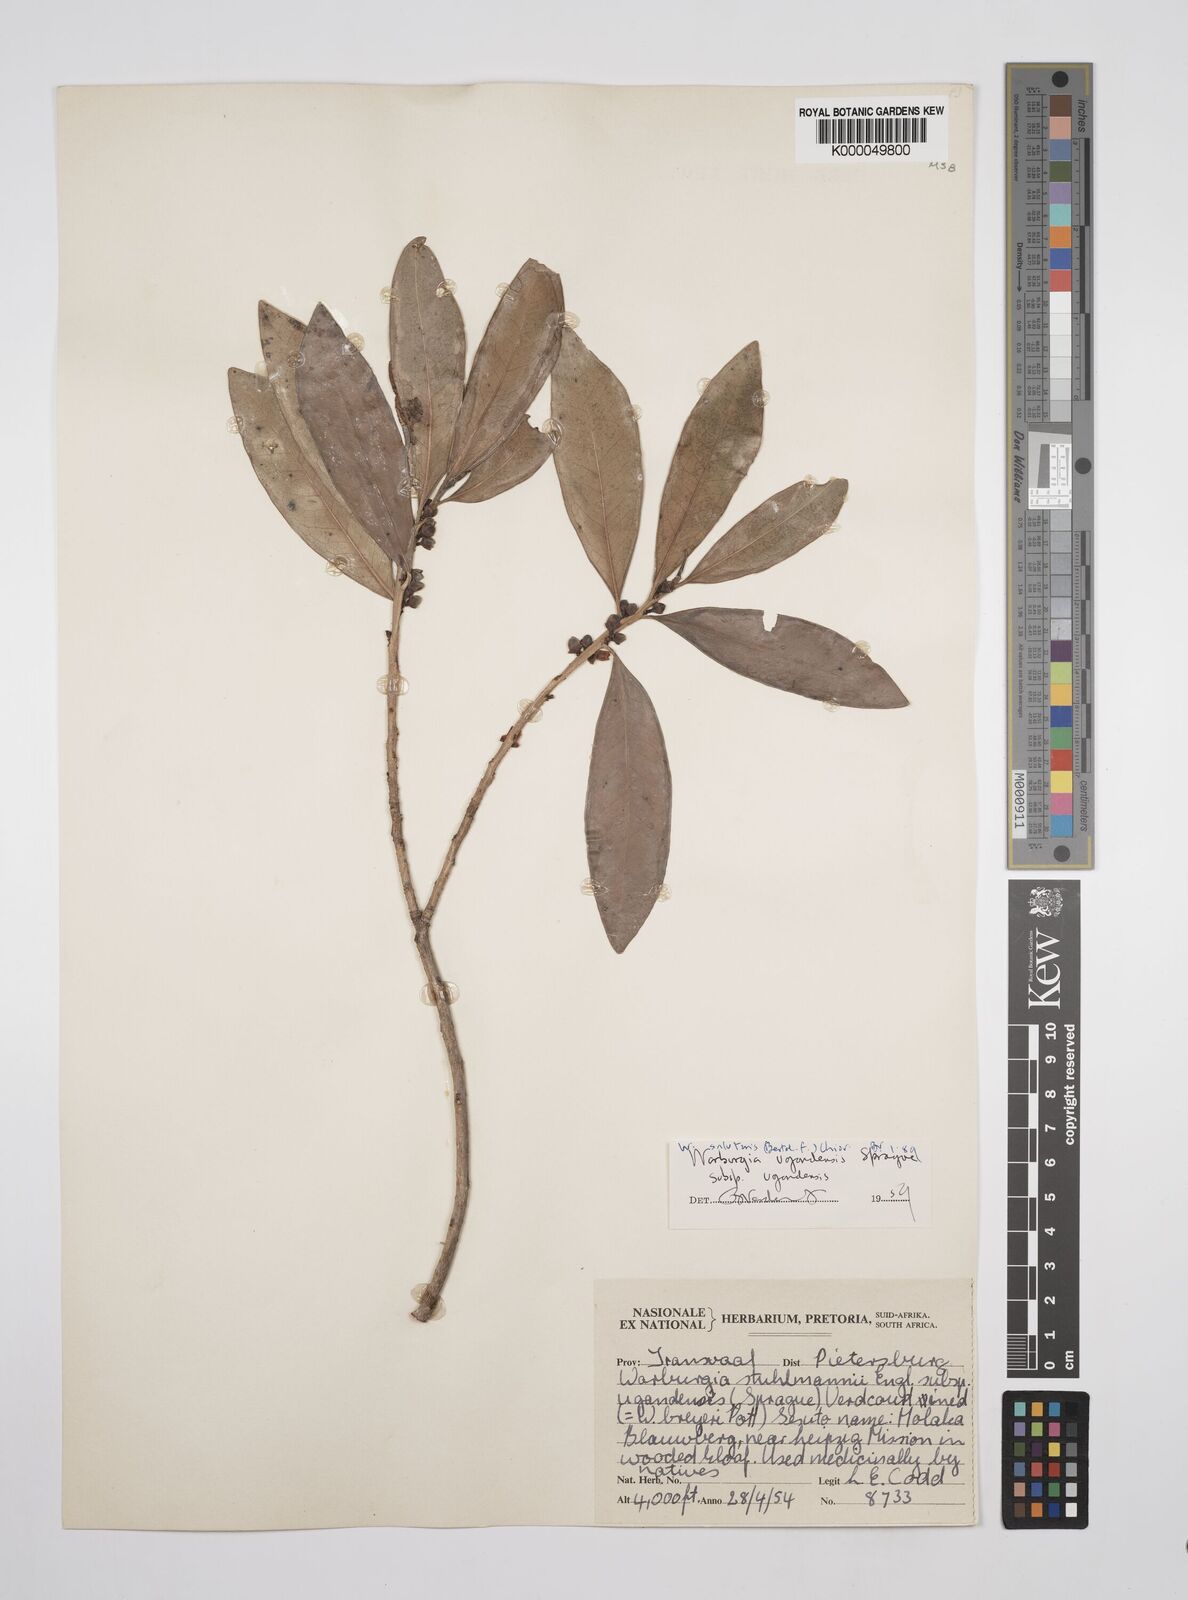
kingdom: Plantae
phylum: Tracheophyta
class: Magnoliopsida
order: Canellales
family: Canellaceae
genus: Warburgia
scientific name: Warburgia salutaris
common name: Pepper bark tree
